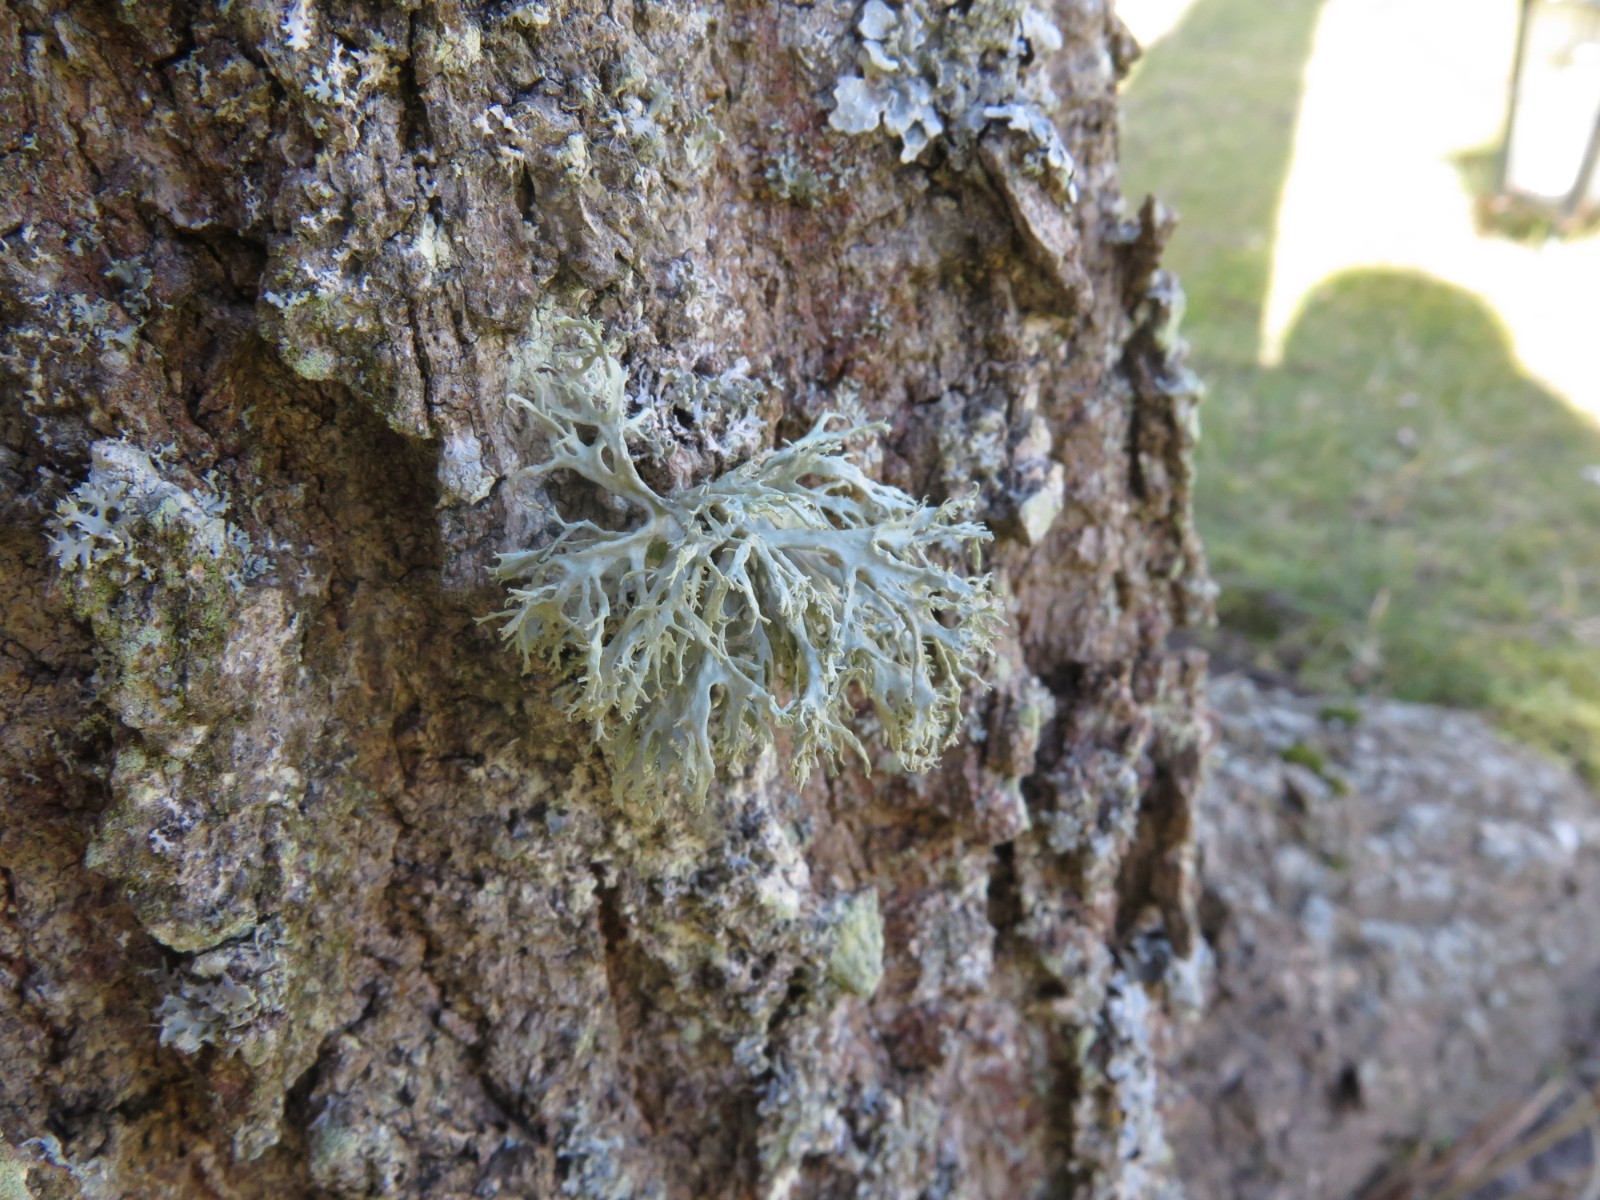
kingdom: Fungi
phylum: Ascomycota
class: Lecanoromycetes
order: Lecanorales
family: Parmeliaceae
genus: Evernia
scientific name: Evernia prunastri
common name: almindelig slåenlav
